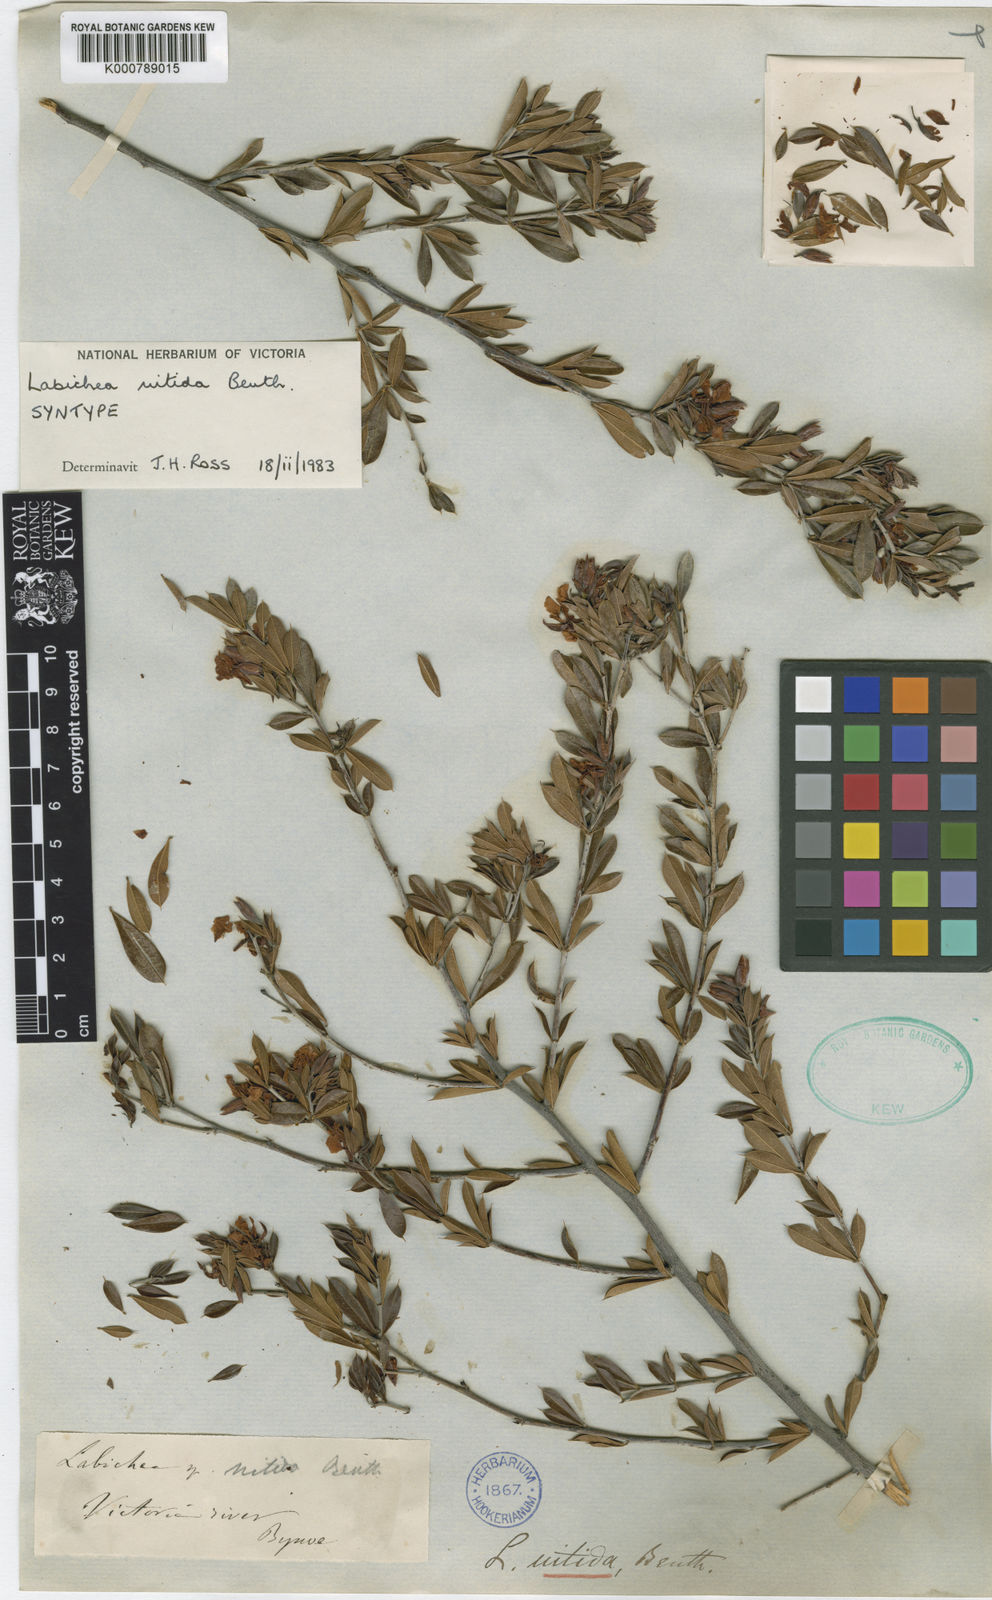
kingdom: Plantae
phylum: Tracheophyta
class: Magnoliopsida
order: Fabales
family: Fabaceae
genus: Labichea
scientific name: Labichea nitida
